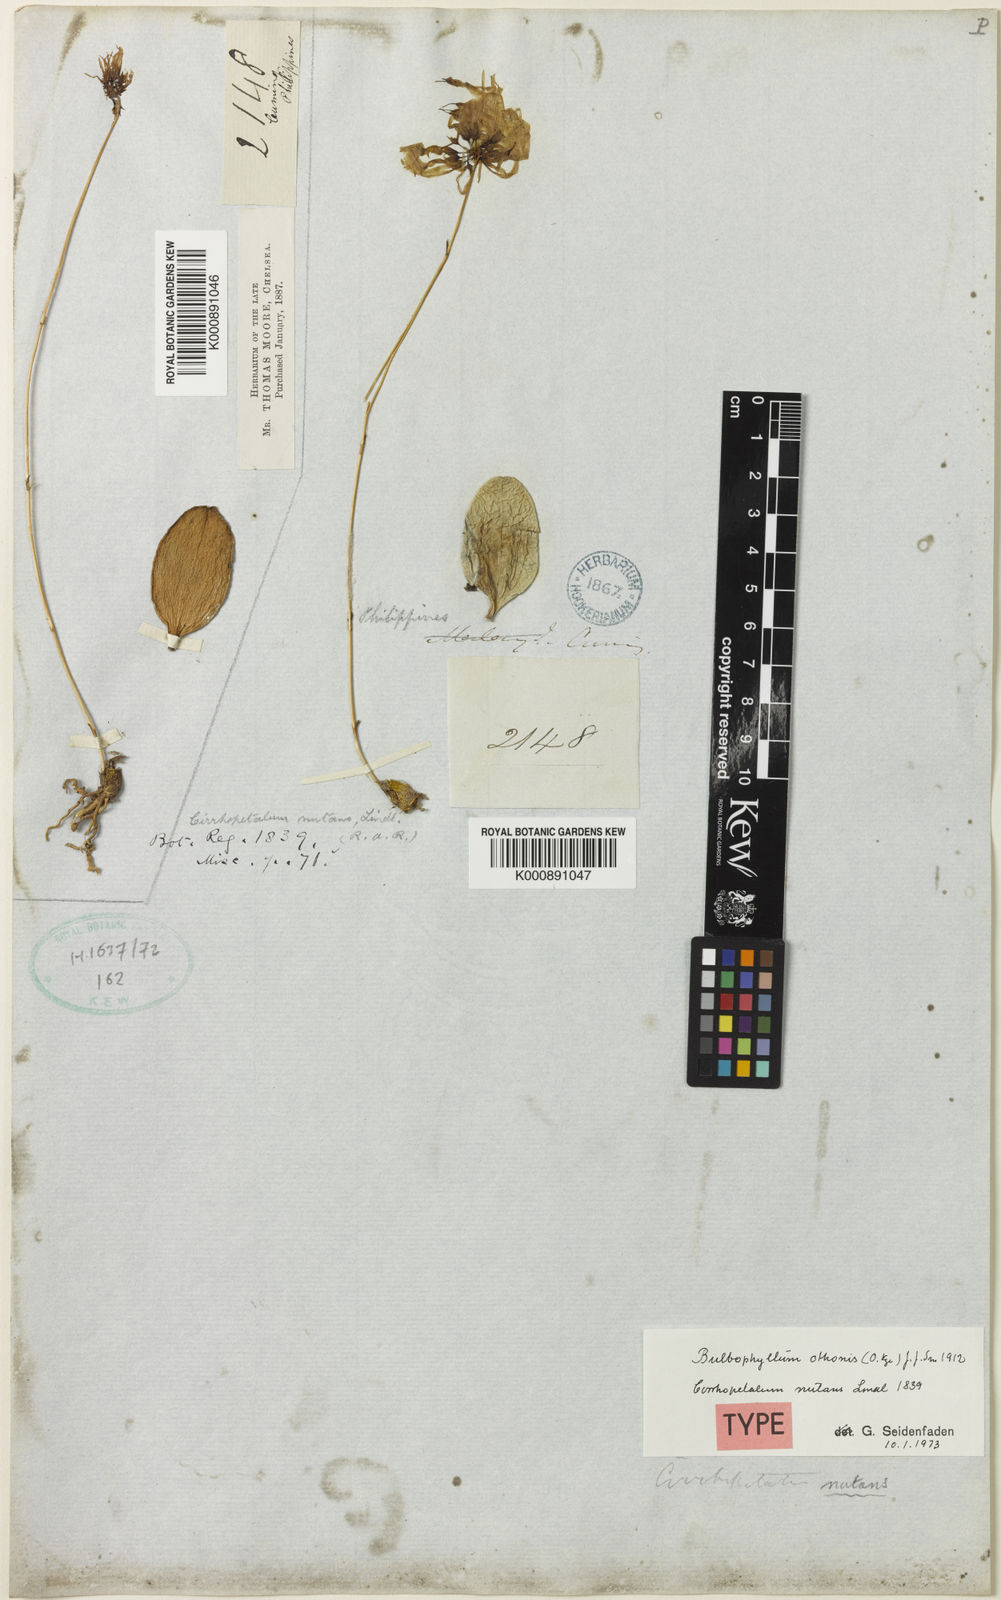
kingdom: Plantae
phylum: Tracheophyta
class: Liliopsida
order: Asparagales
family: Orchidaceae
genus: Bulbophyllum
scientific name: Bulbophyllum othonis
